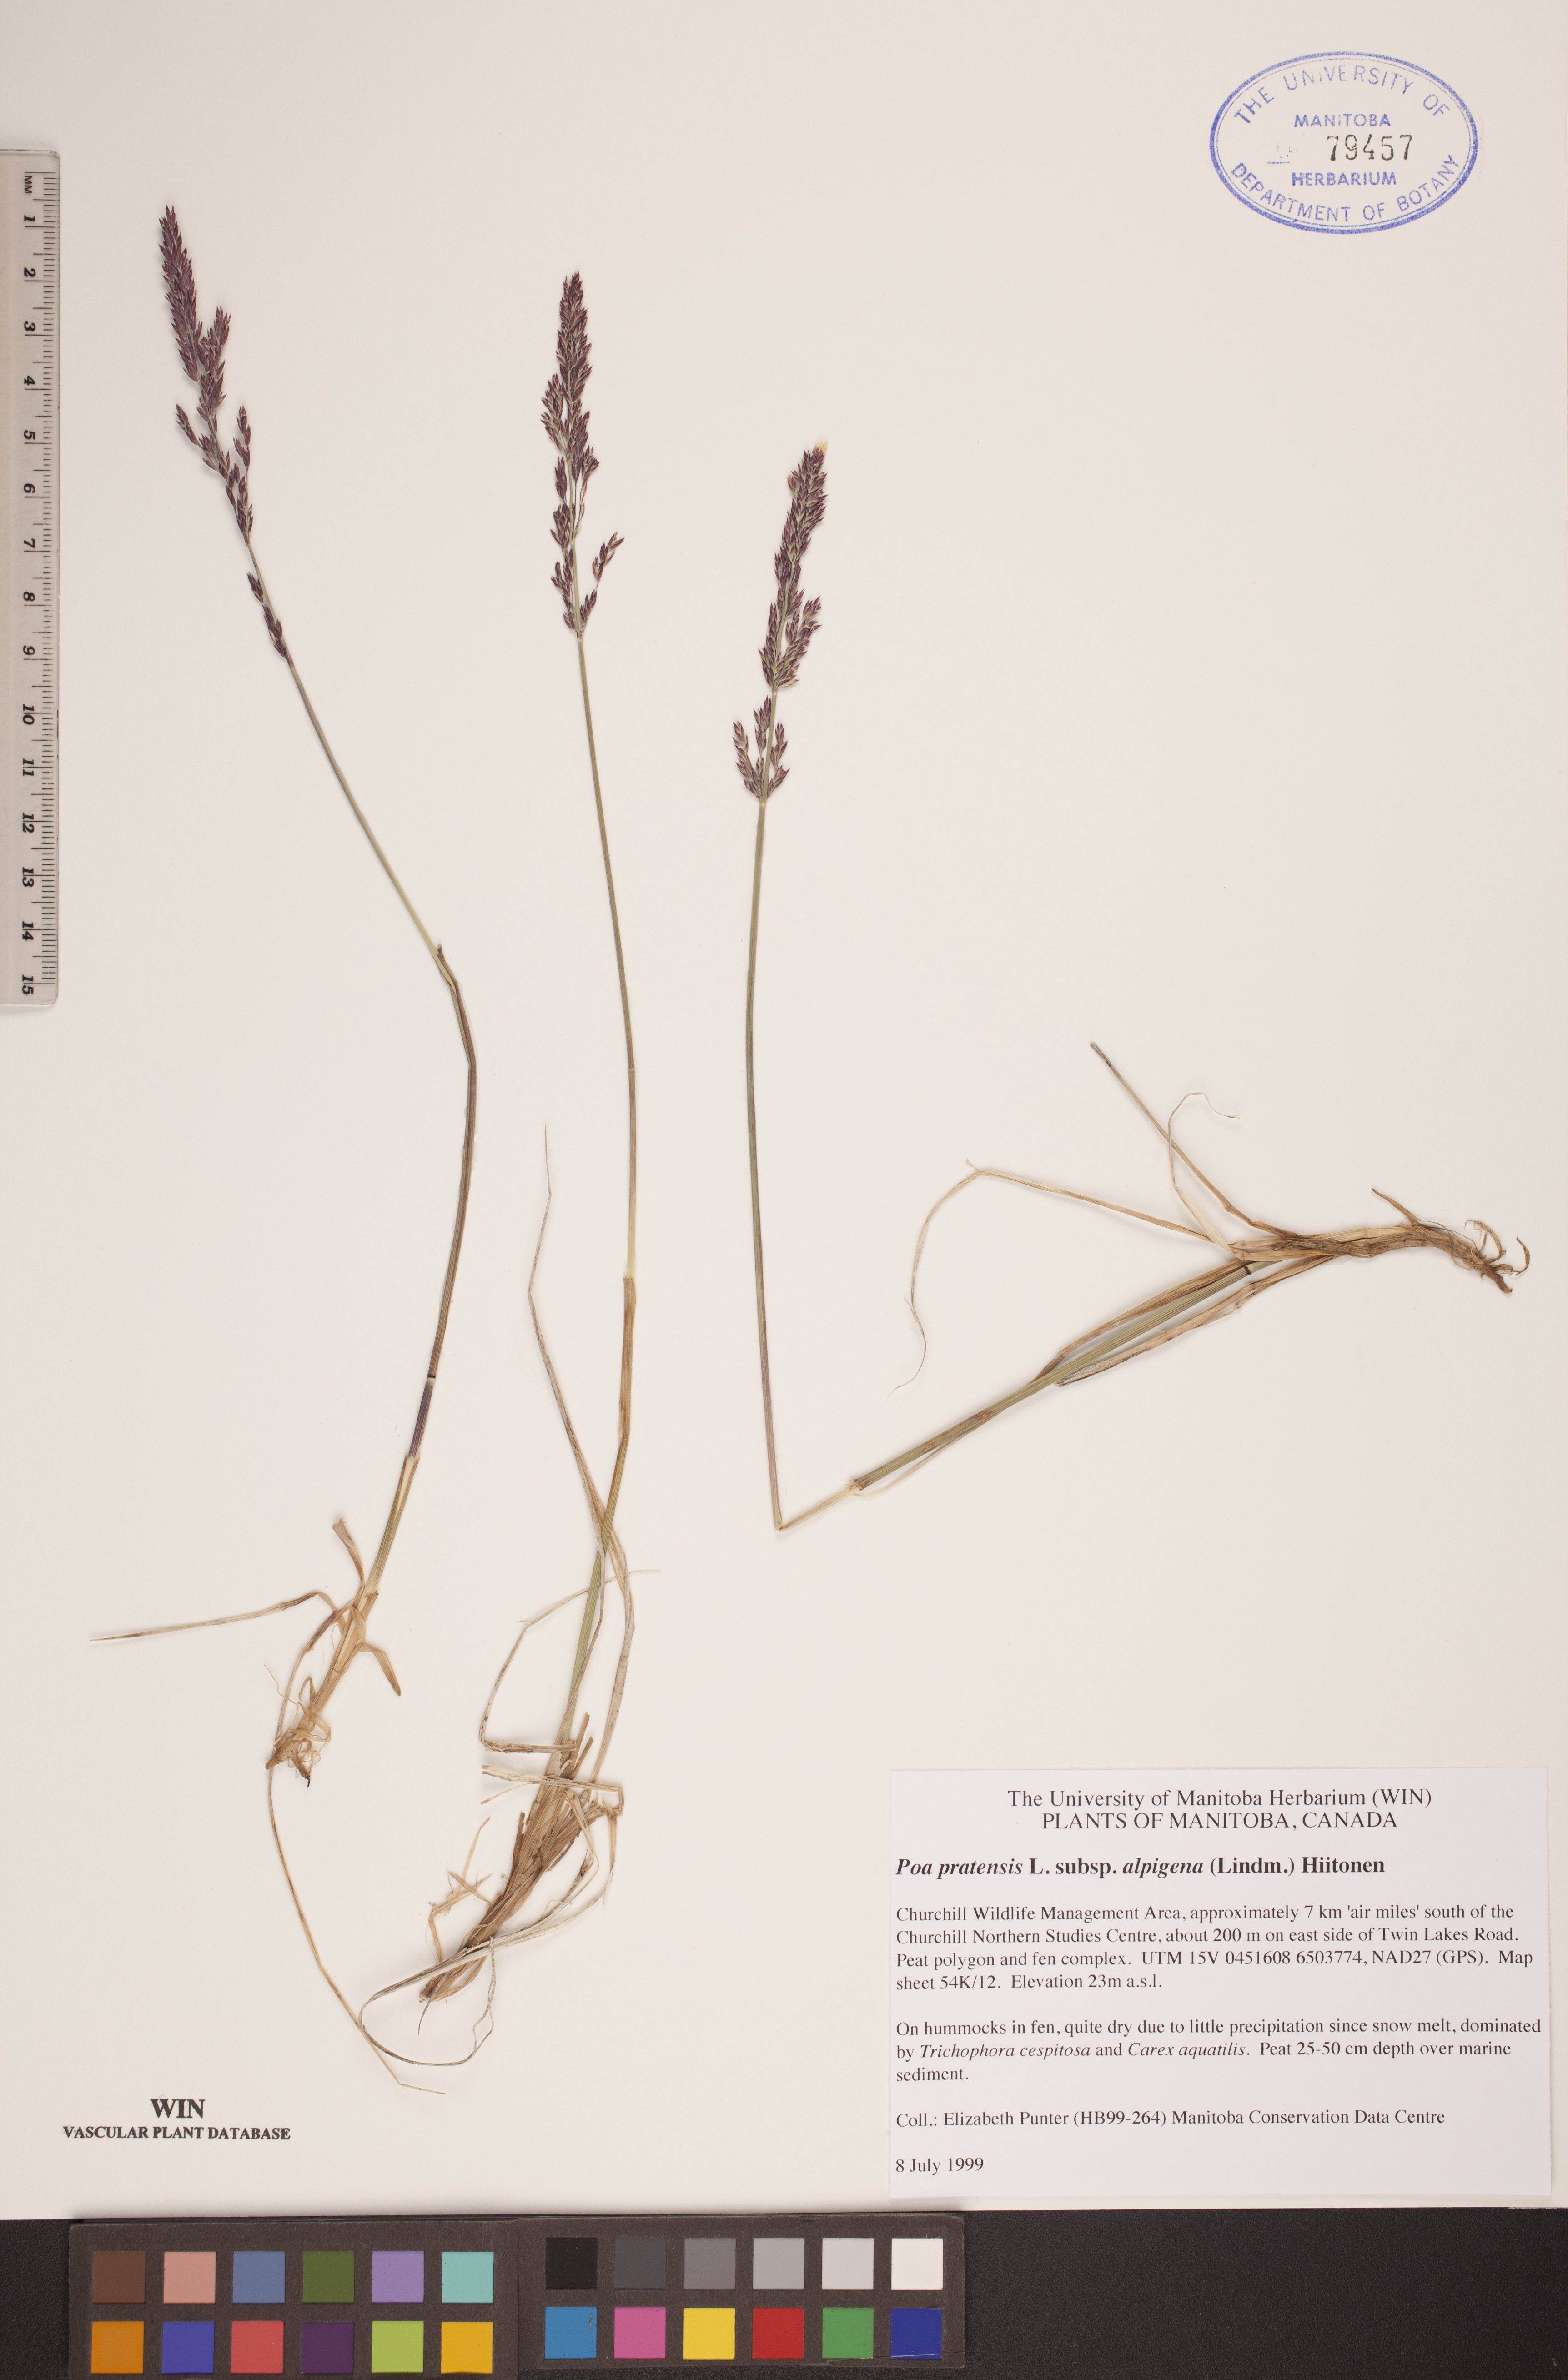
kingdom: Plantae
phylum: Tracheophyta
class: Liliopsida
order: Poales
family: Poaceae
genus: Poa
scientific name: Poa alpigena
